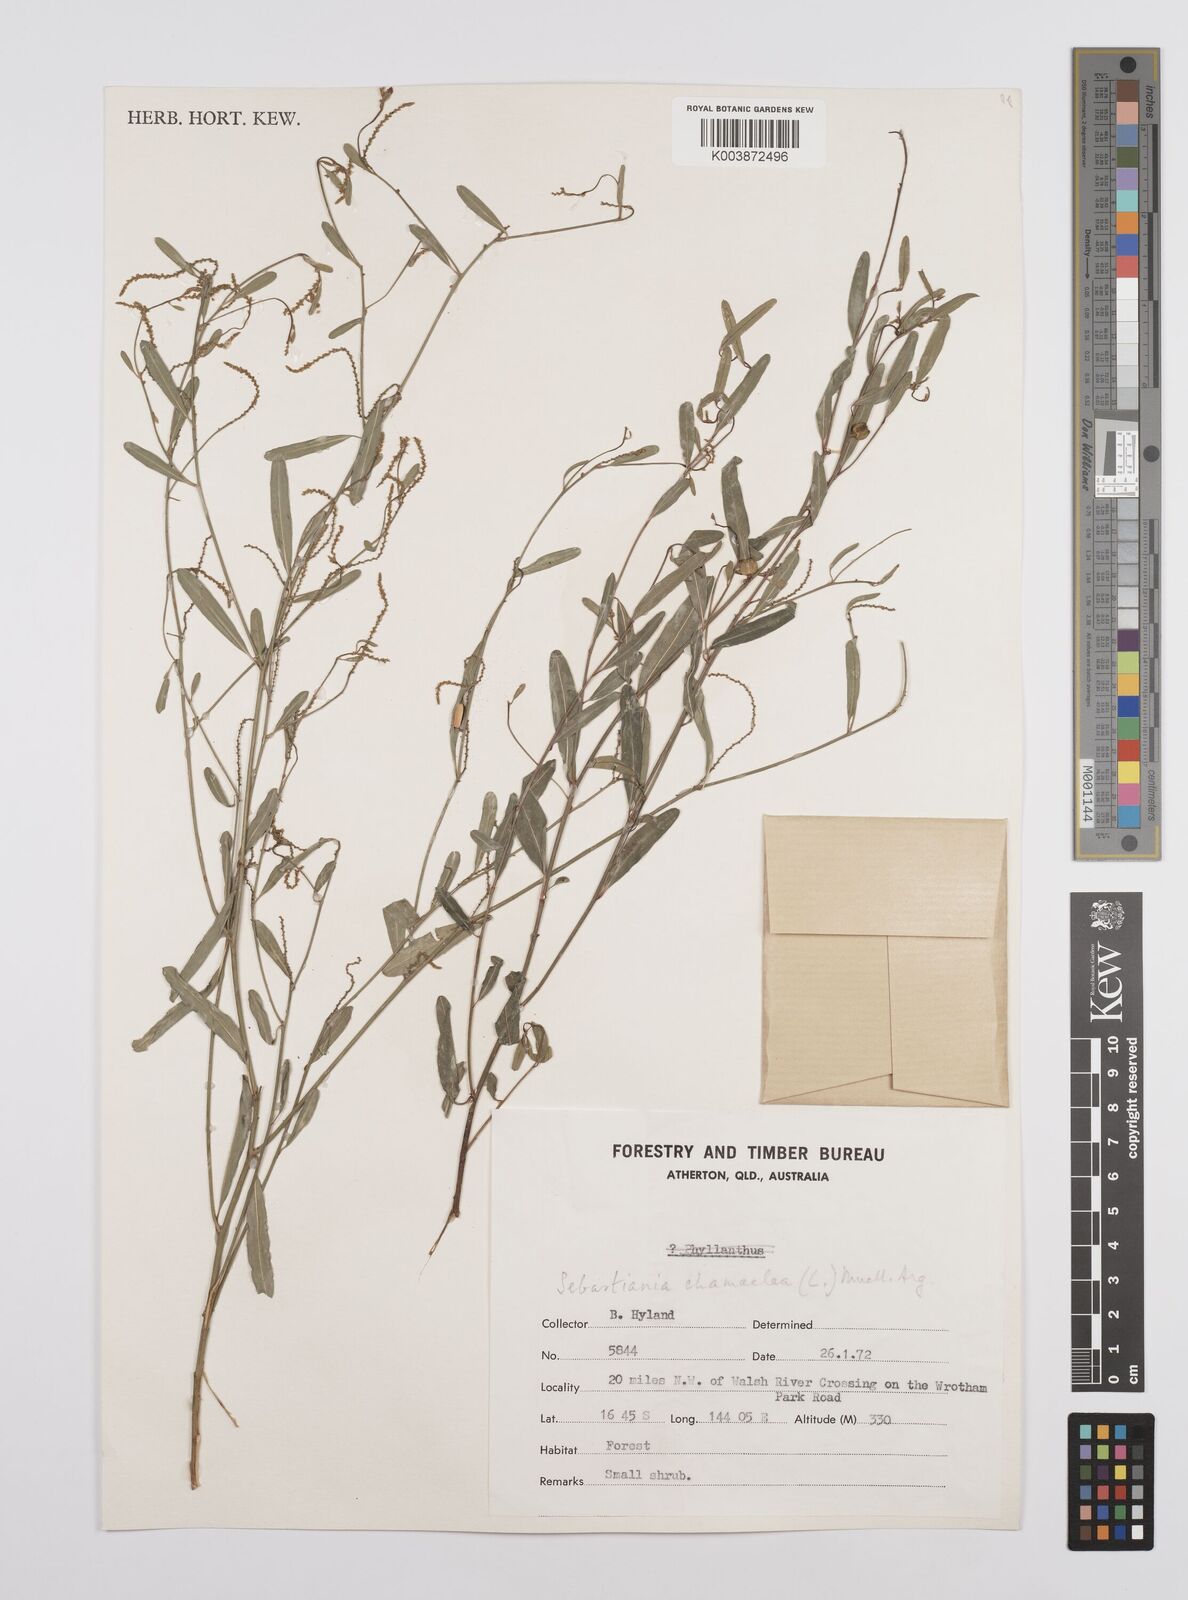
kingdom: Plantae
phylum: Tracheophyta
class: Magnoliopsida
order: Malpighiales
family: Euphorbiaceae
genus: Microstachys
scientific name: Microstachys chamaelea
